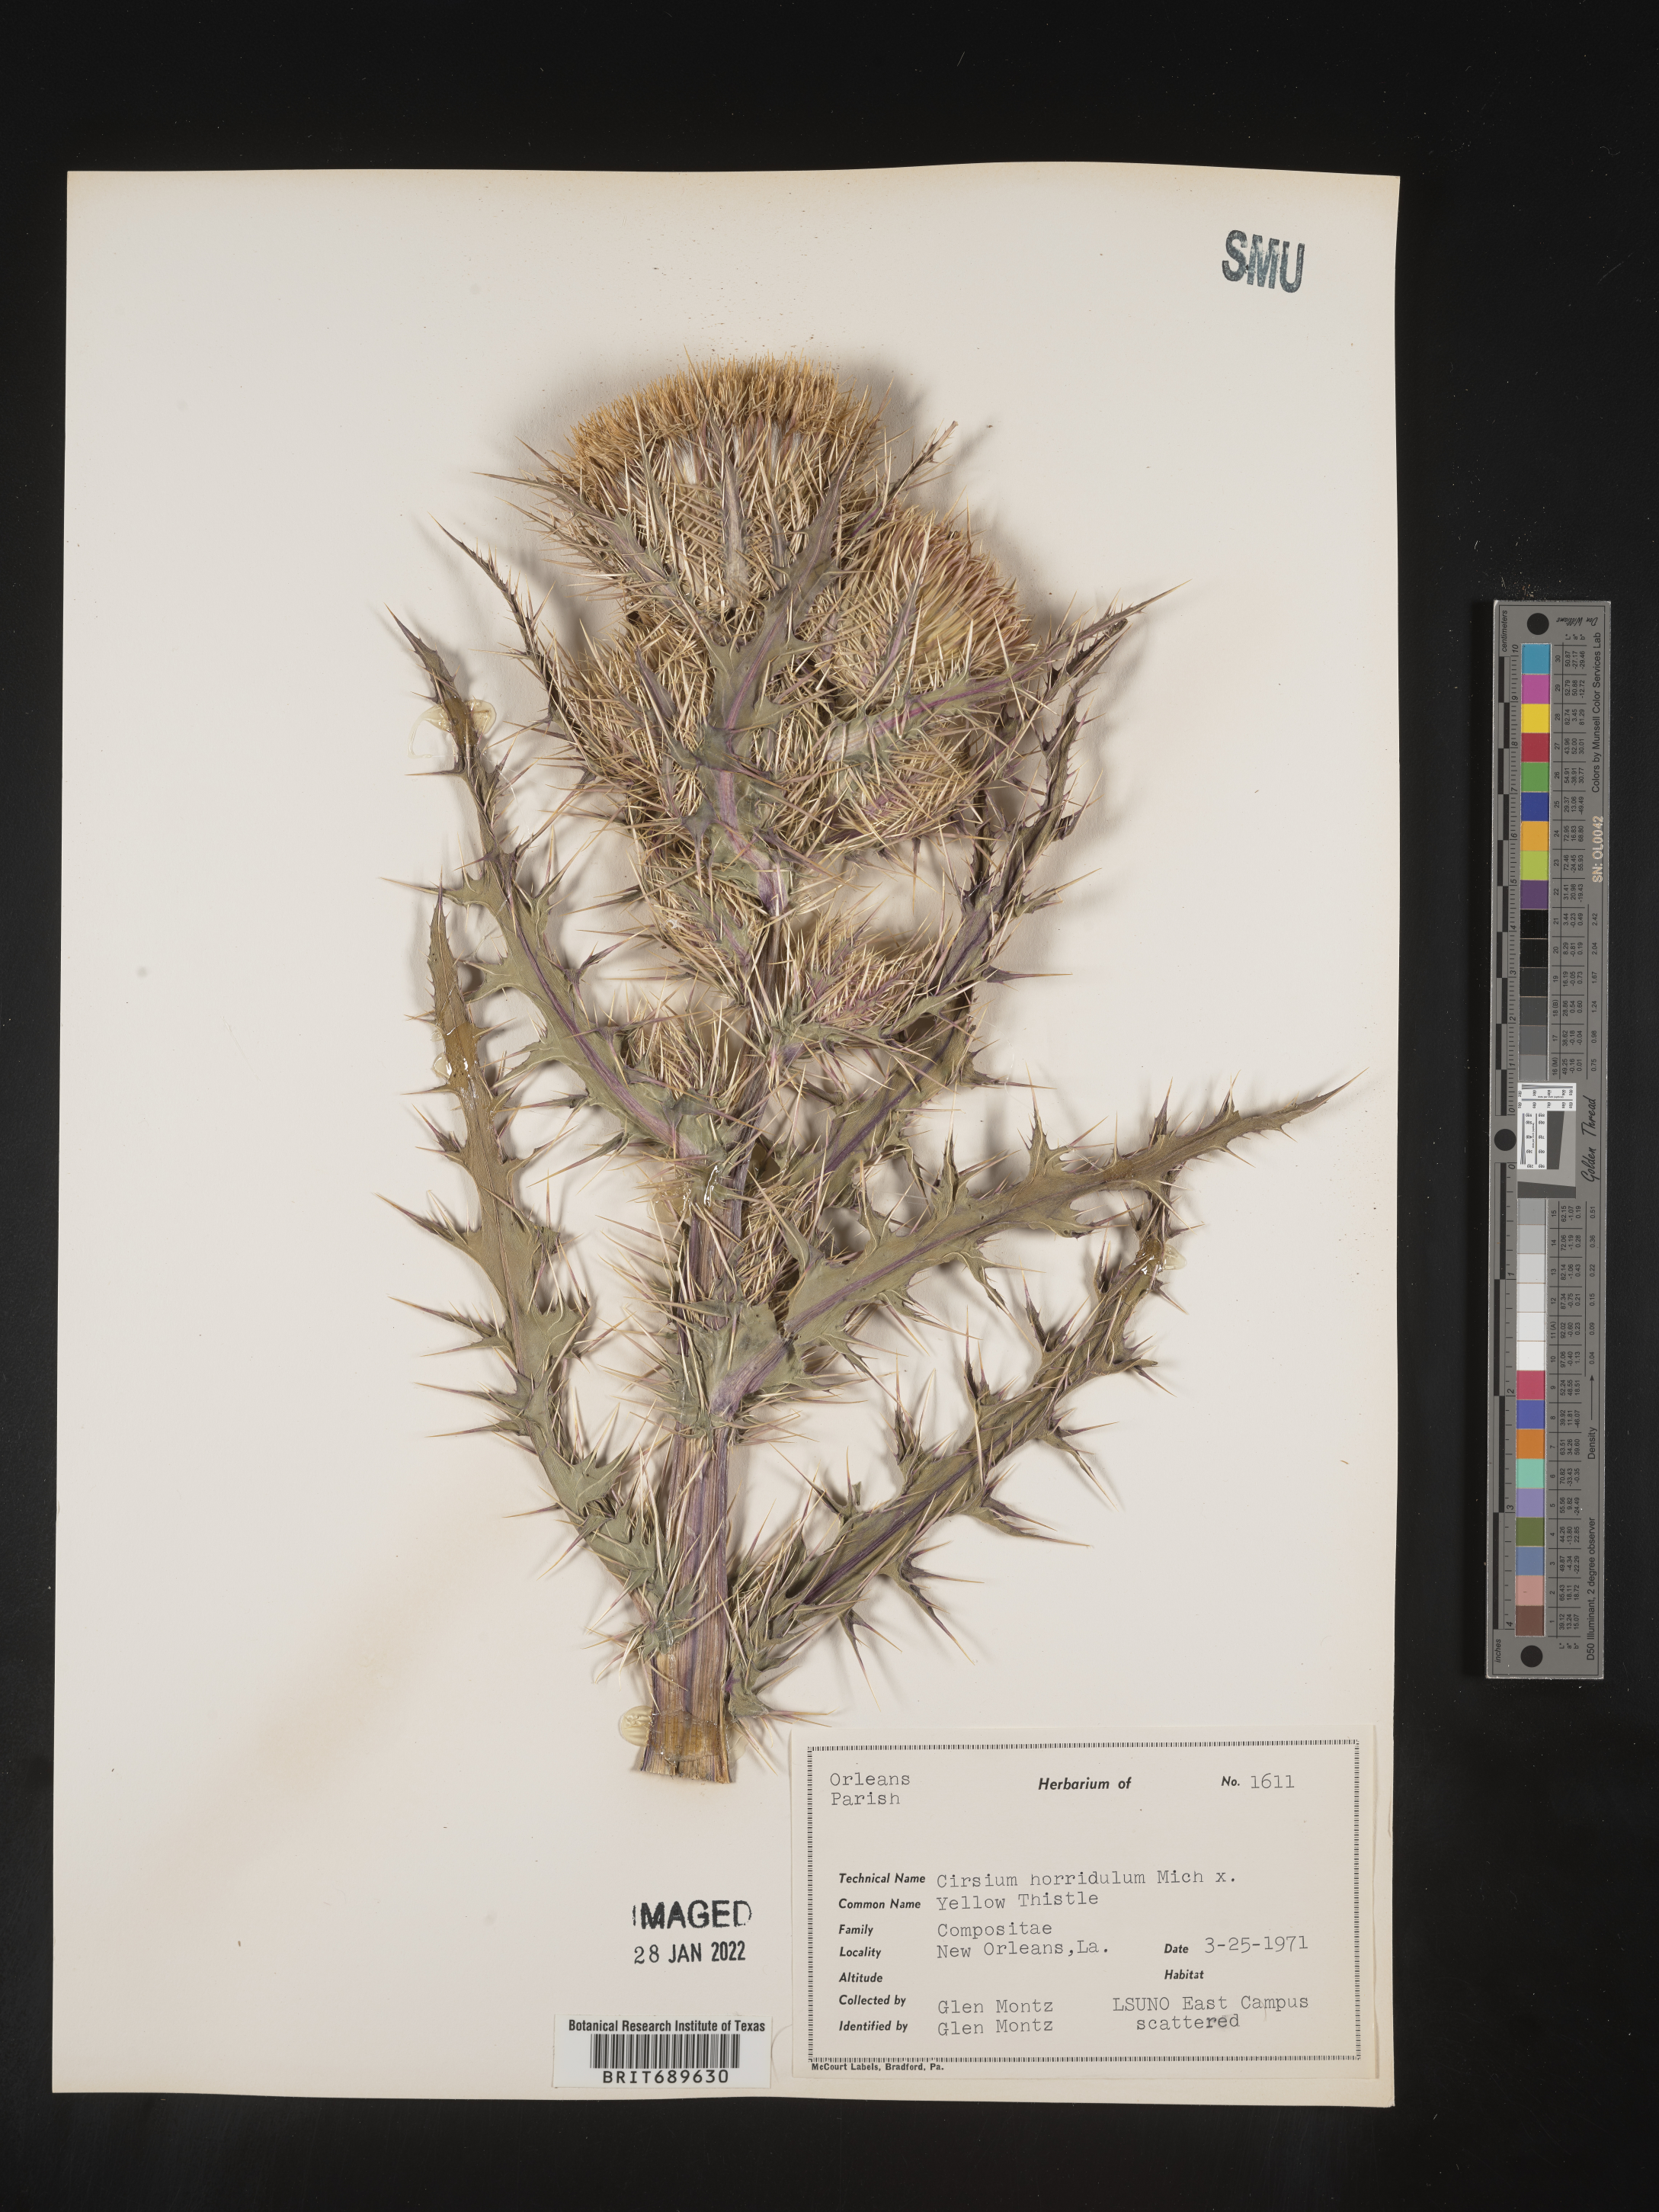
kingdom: Plantae
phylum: Tracheophyta
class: Magnoliopsida
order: Asterales
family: Asteraceae
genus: Cirsium
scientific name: Cirsium horridulum
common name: Bristly thistle
